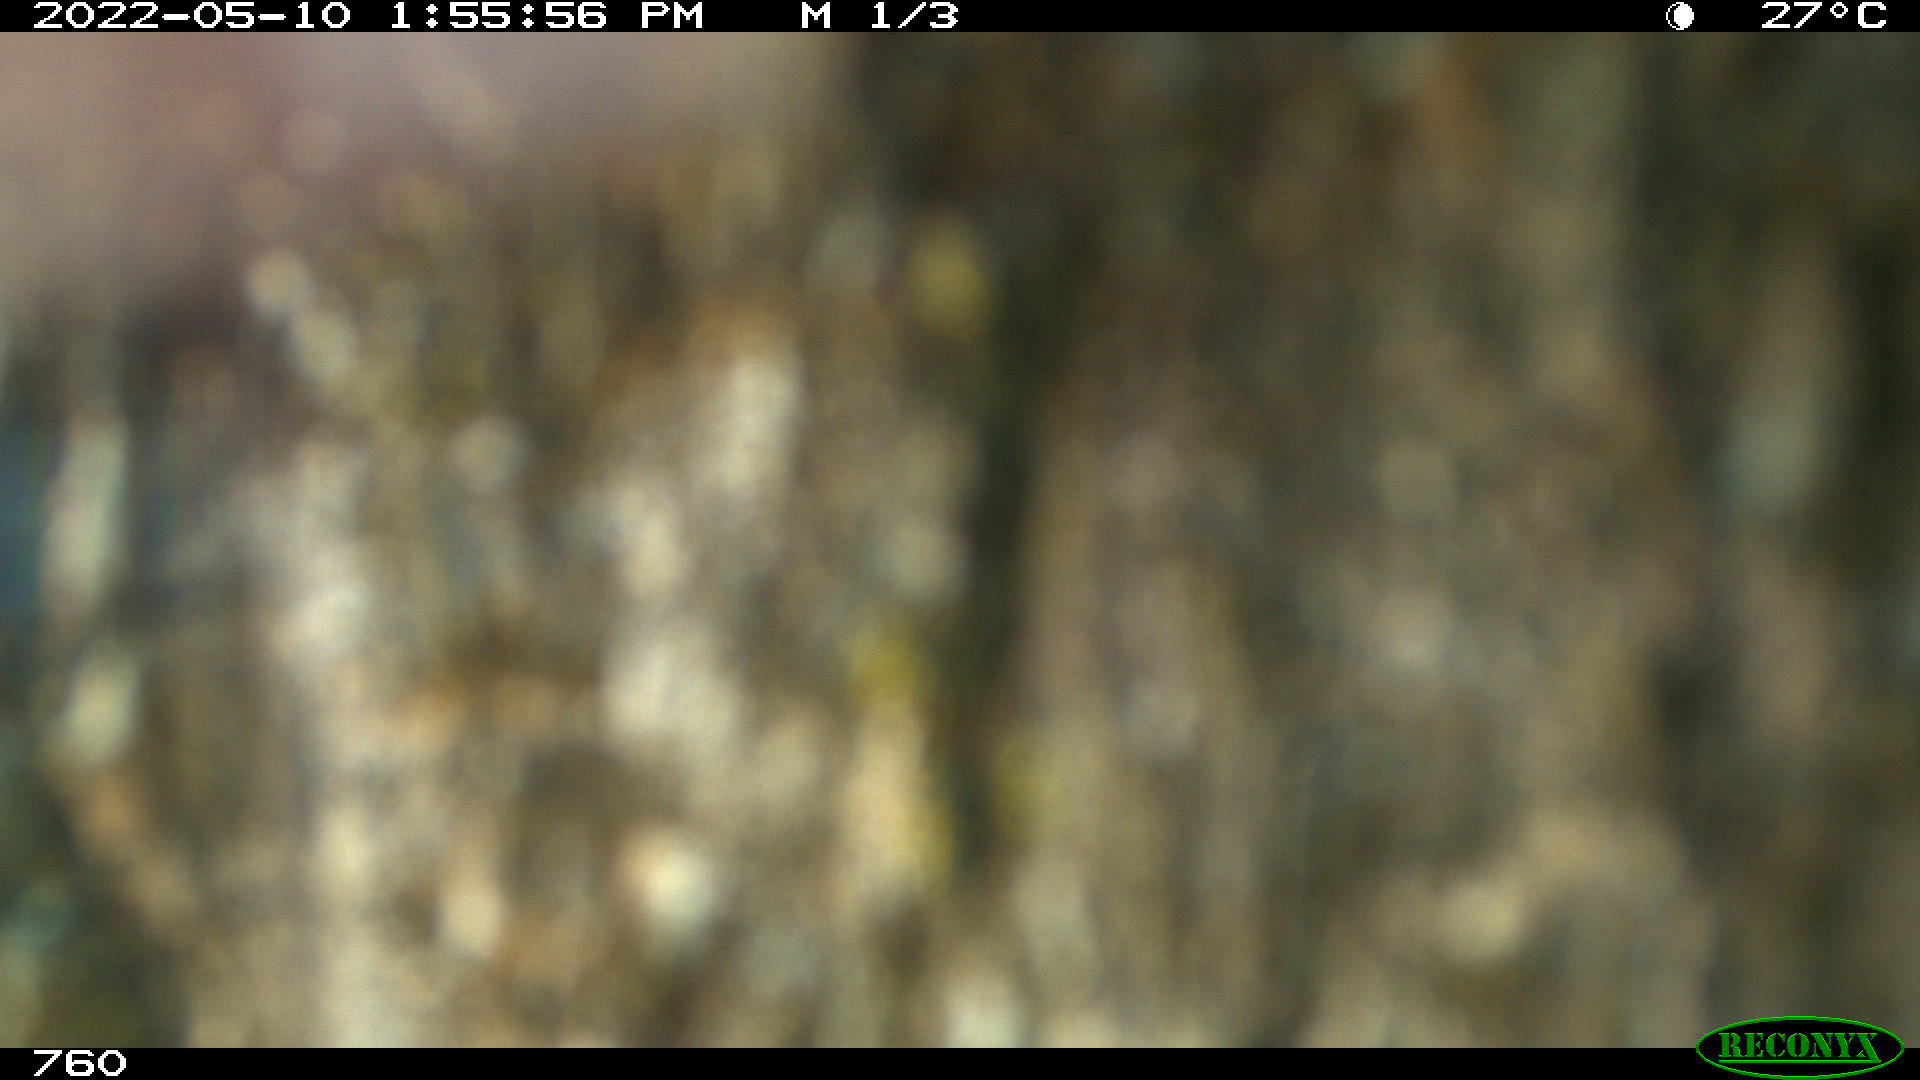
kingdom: Animalia
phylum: Chordata
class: Mammalia
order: Carnivora
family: Felidae
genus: Felis
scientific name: Felis
